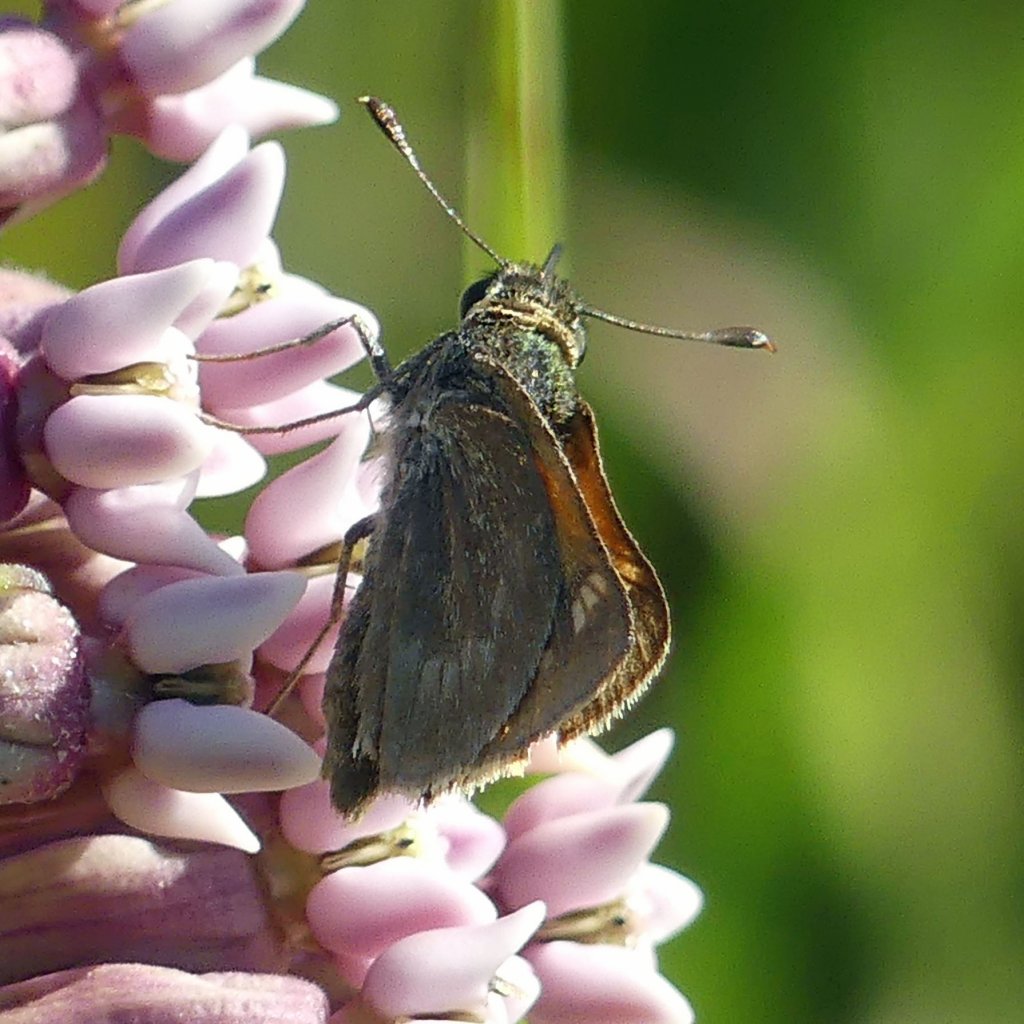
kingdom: Animalia
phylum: Arthropoda
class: Insecta
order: Lepidoptera
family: Hesperiidae
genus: Polites
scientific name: Polites themistocles
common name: Tawny-edged Skipper
